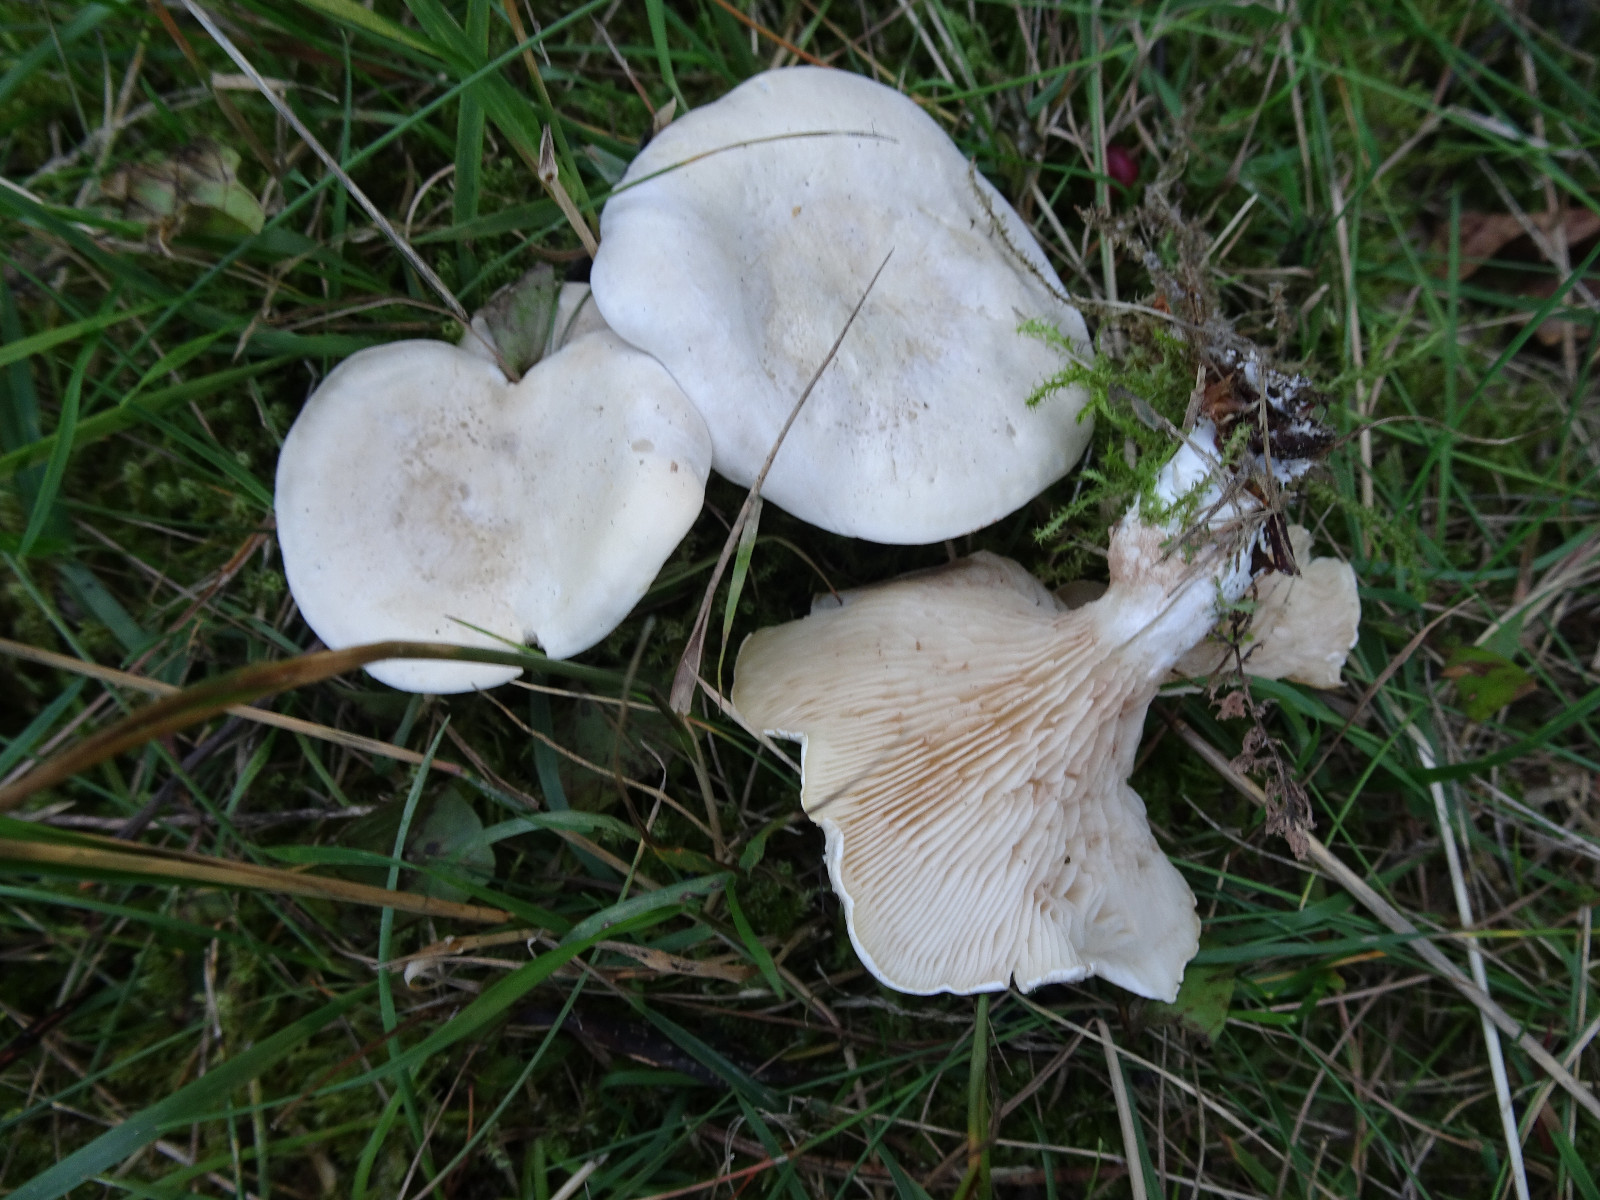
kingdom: Fungi
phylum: Basidiomycota
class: Agaricomycetes
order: Agaricales
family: Entolomataceae
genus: Clitopilus
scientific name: Clitopilus prunulus
